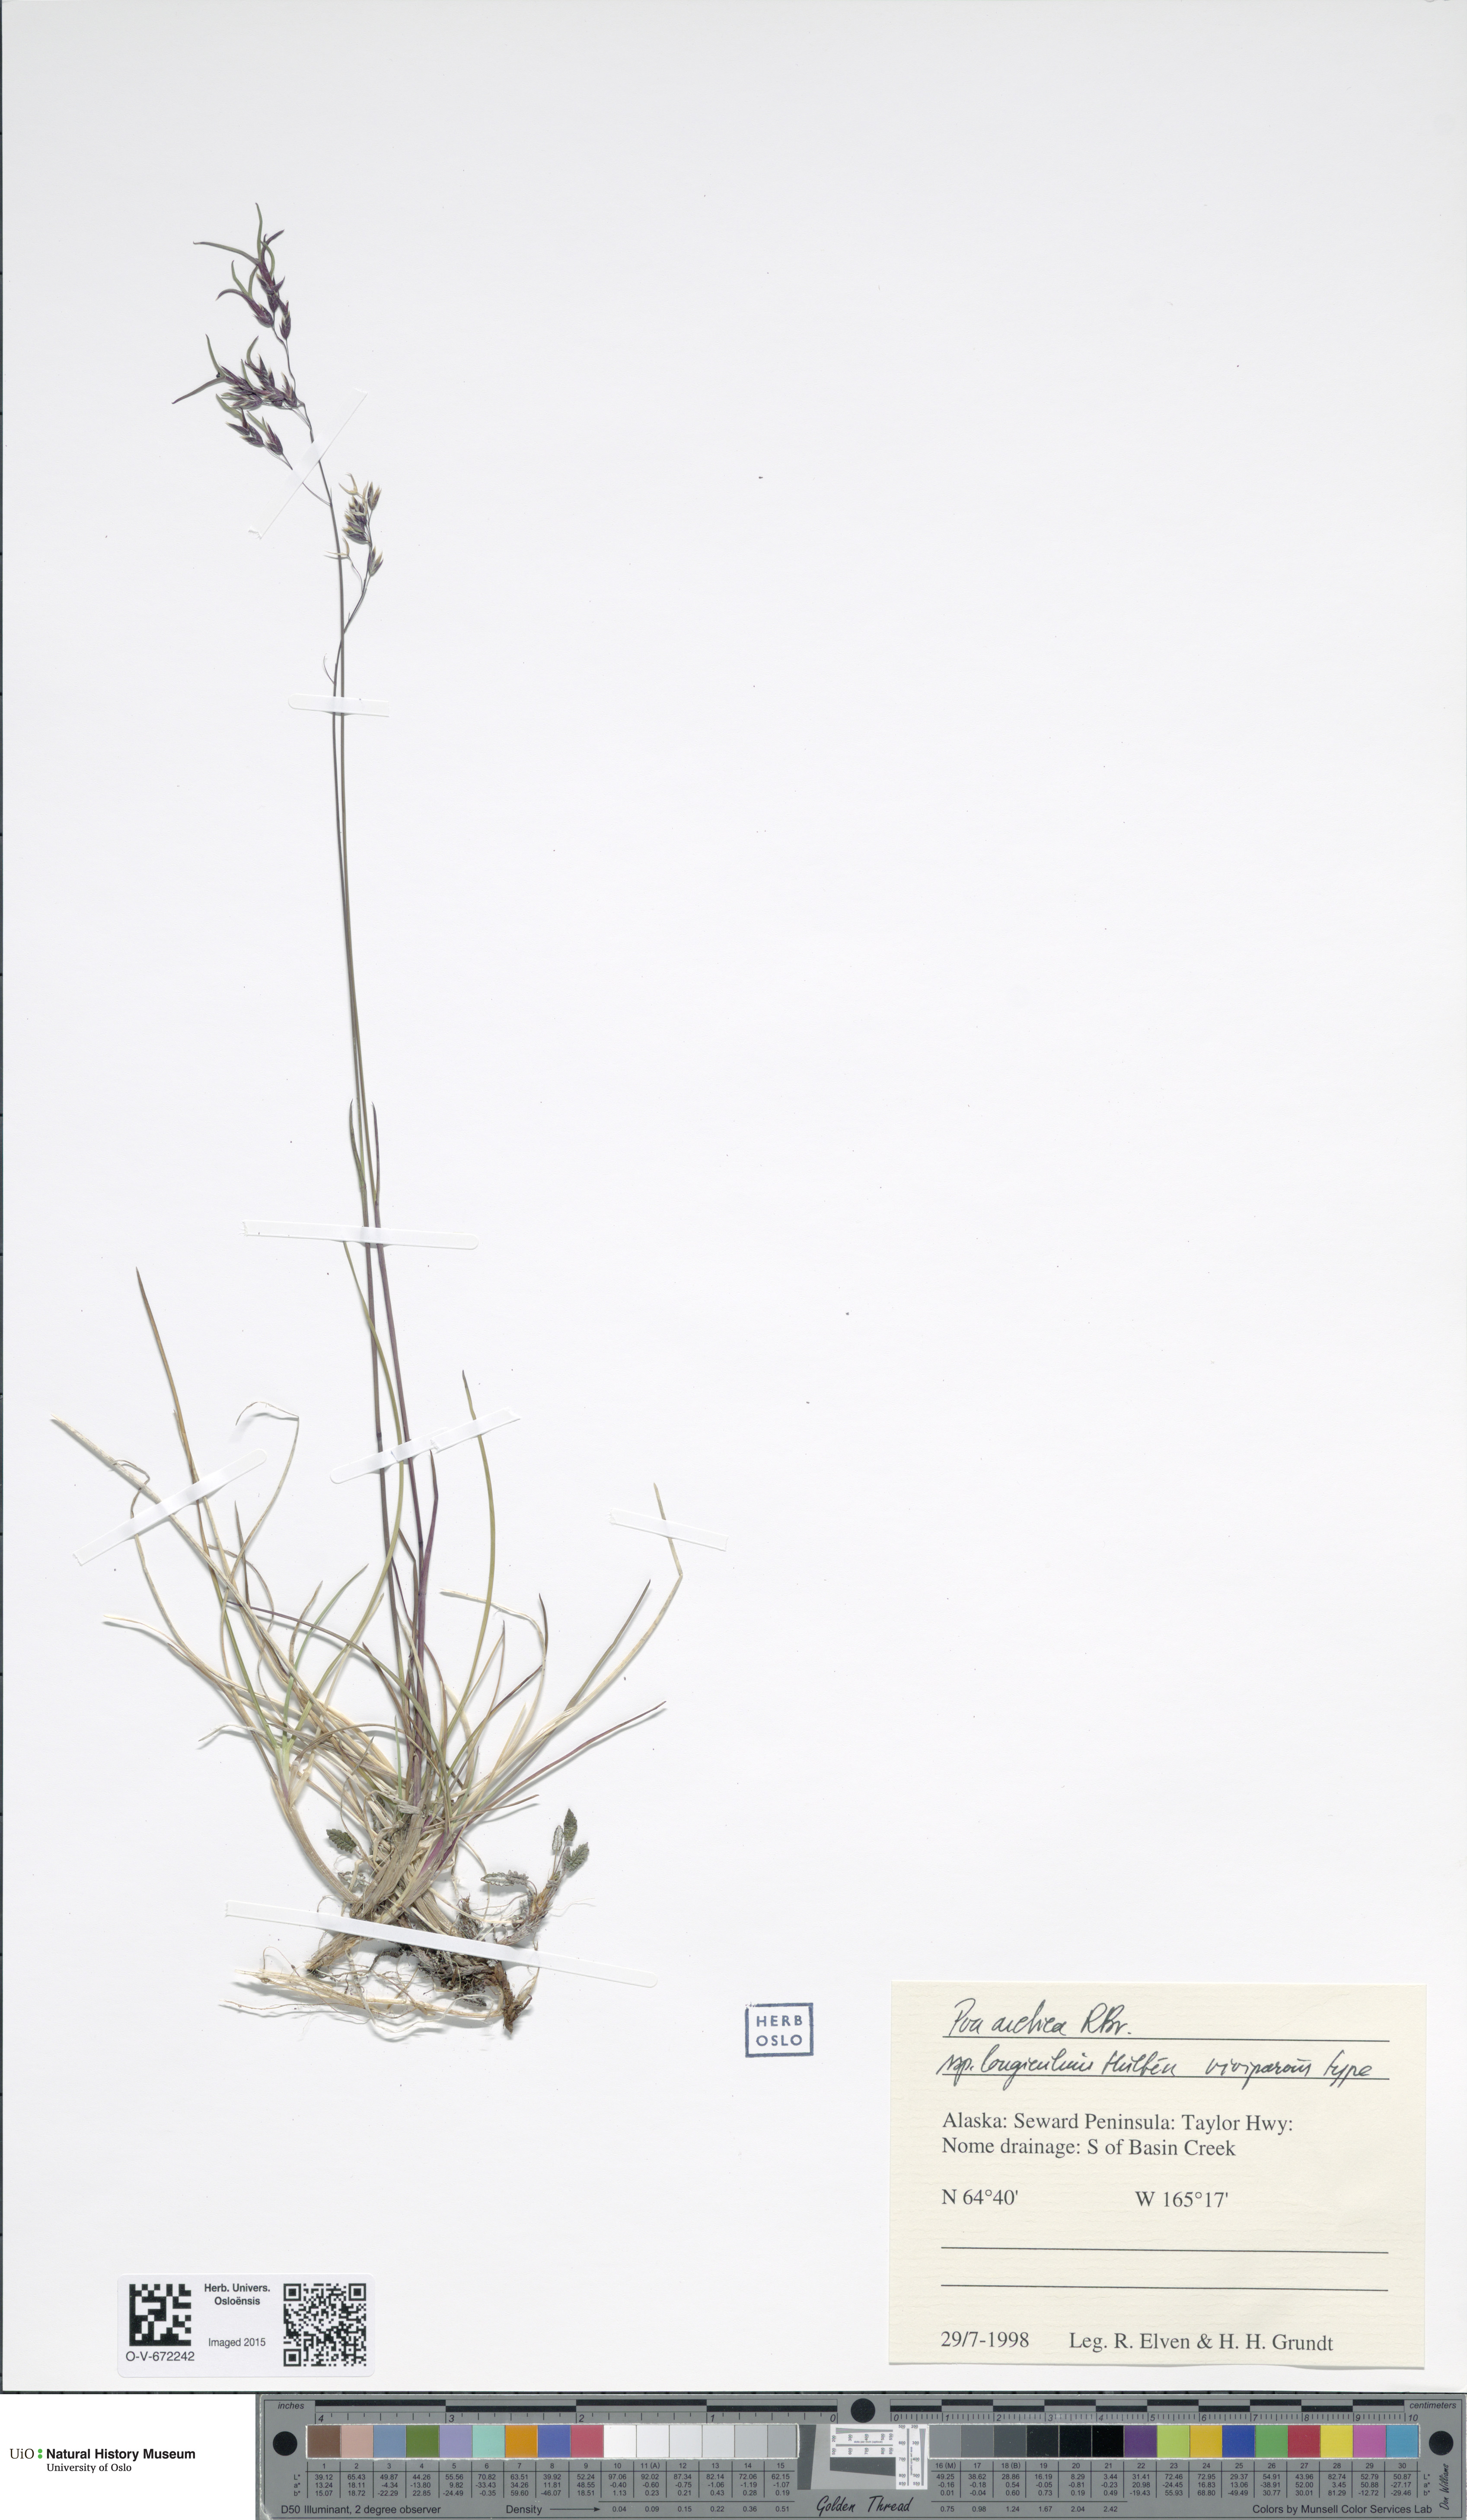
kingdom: Plantae
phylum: Tracheophyta
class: Liliopsida
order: Poales
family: Poaceae
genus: Poa
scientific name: Poa arctica
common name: Arctic bluegrass
